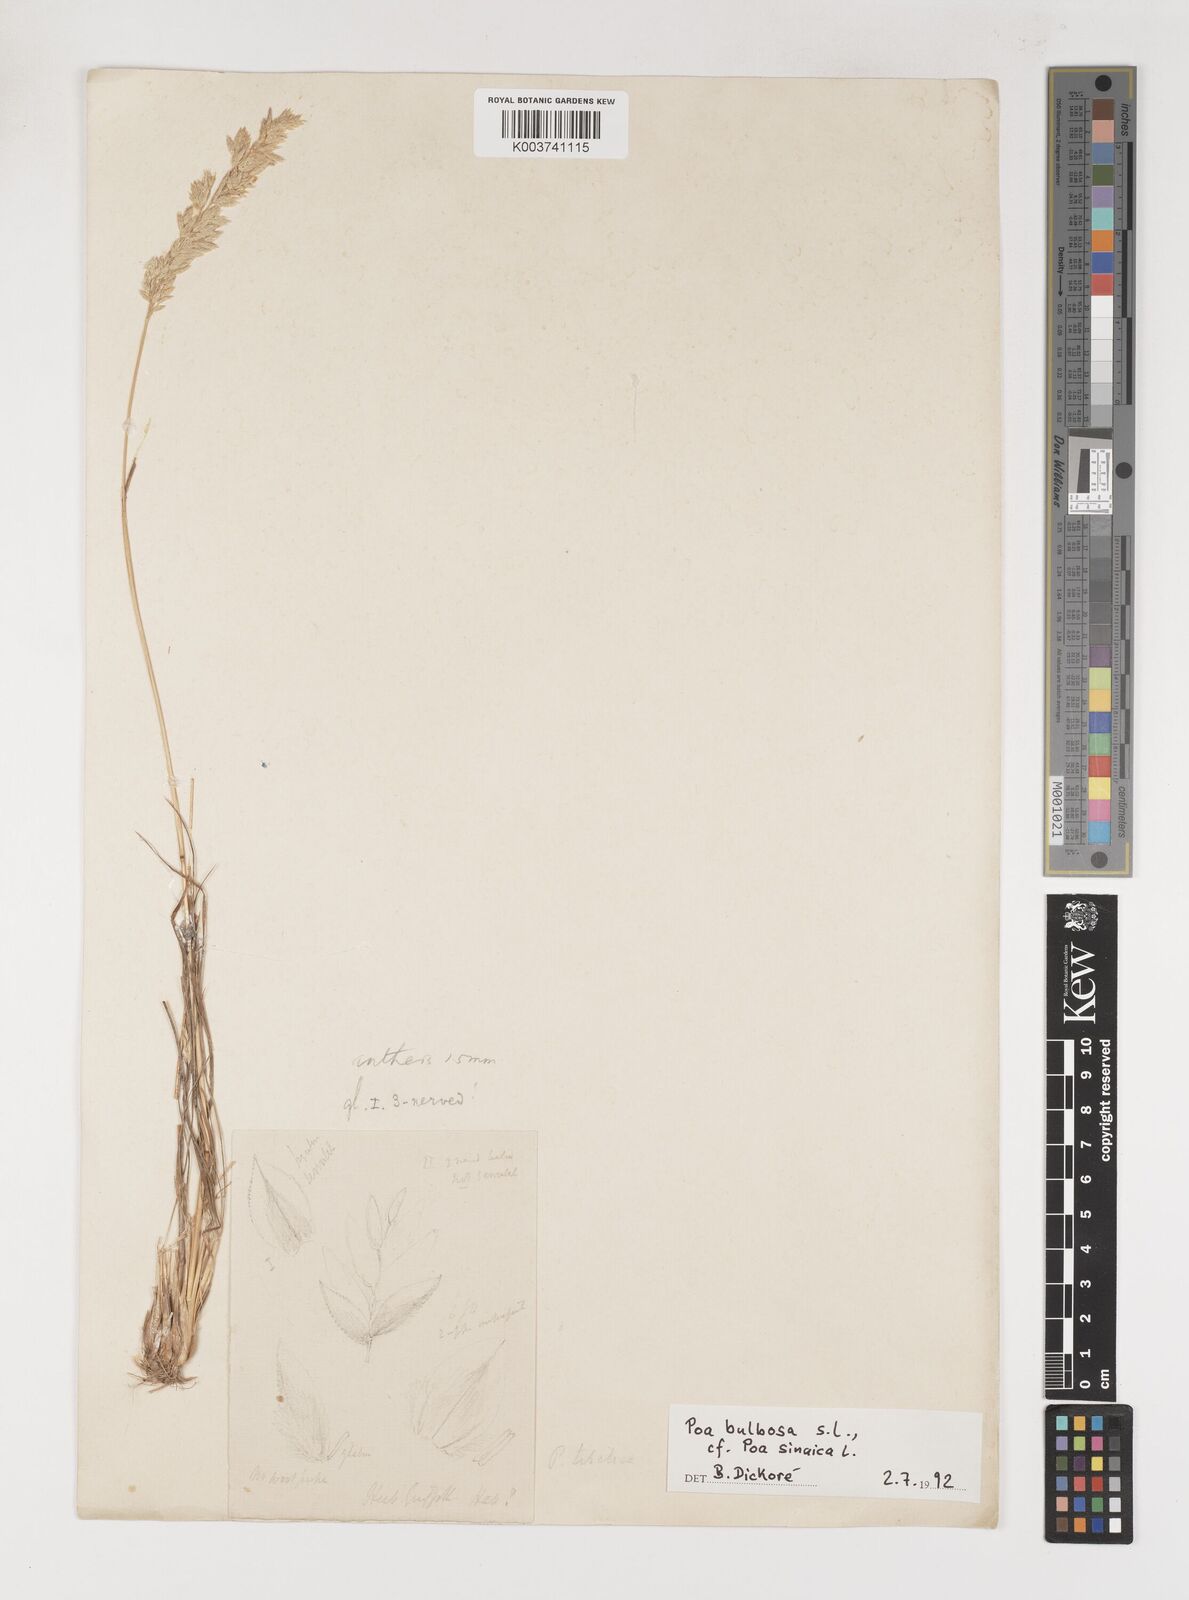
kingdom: Plantae
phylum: Tracheophyta
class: Liliopsida
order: Poales
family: Poaceae
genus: Poa
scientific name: Poa sinaica
